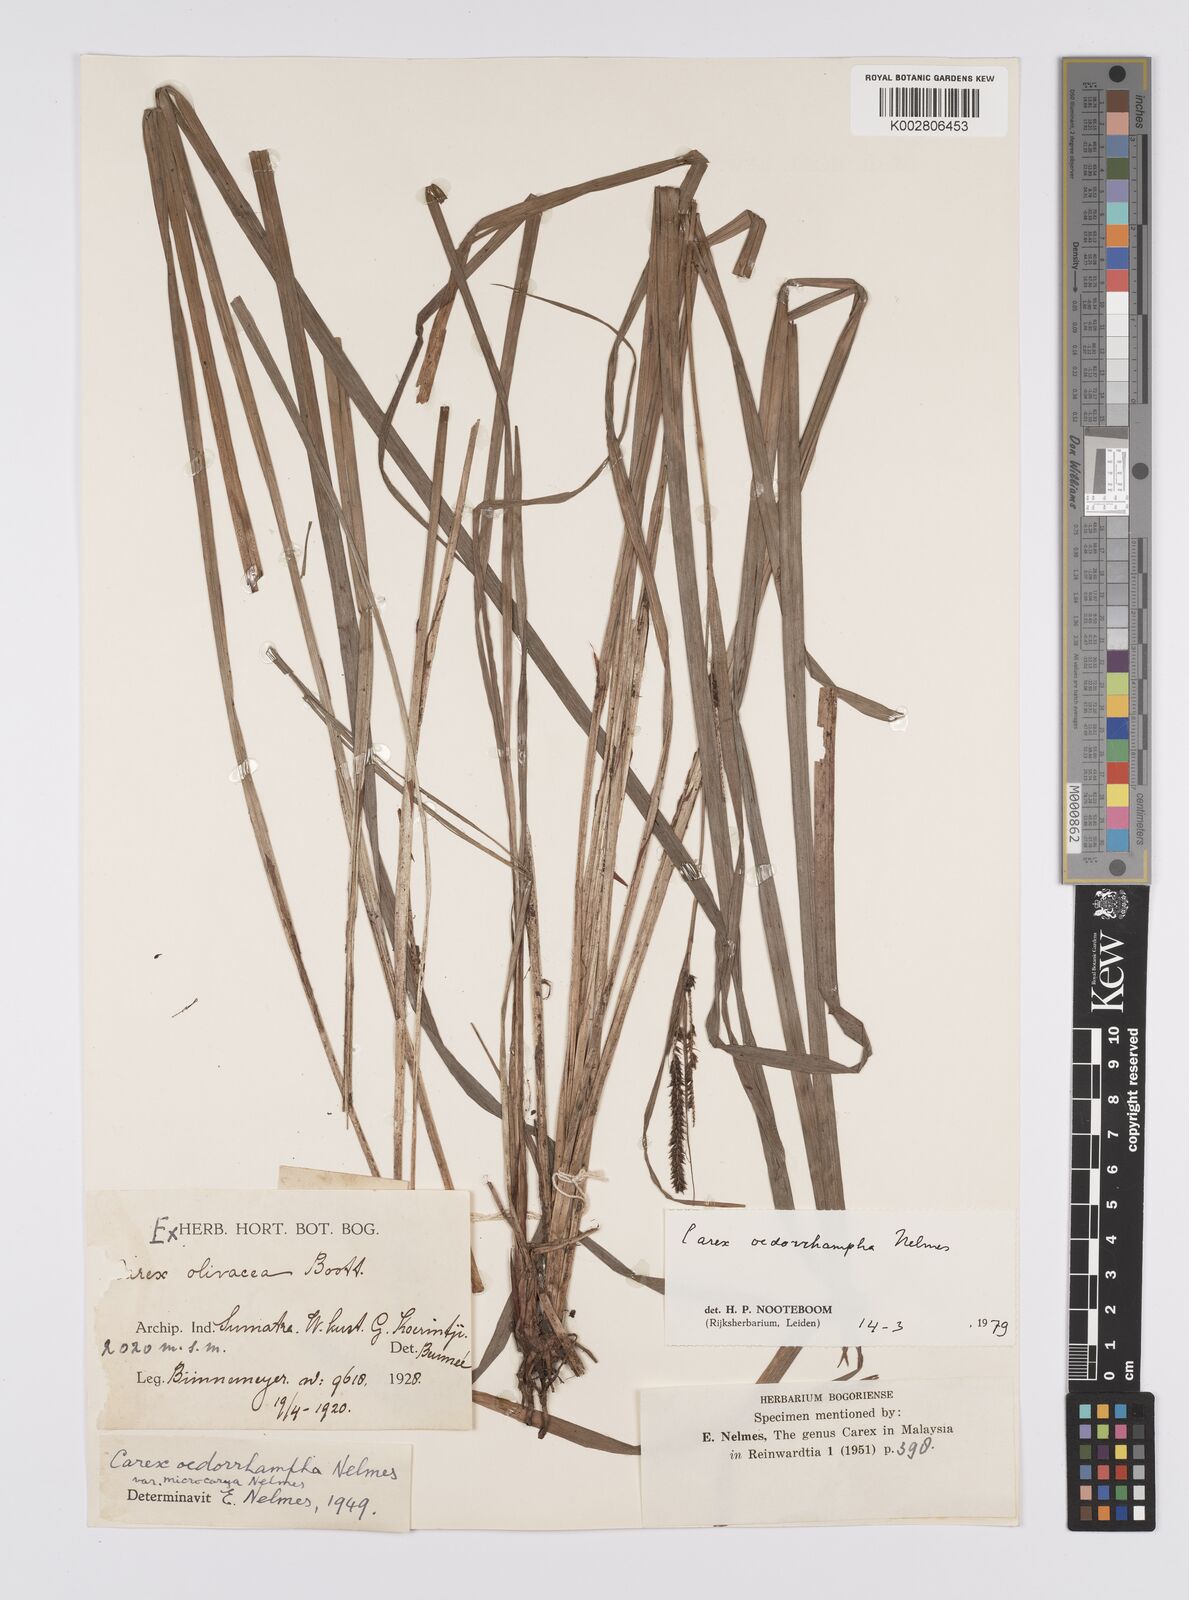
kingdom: Plantae
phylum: Tracheophyta
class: Liliopsida
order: Poales
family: Cyperaceae
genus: Carex
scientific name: Carex tumida
